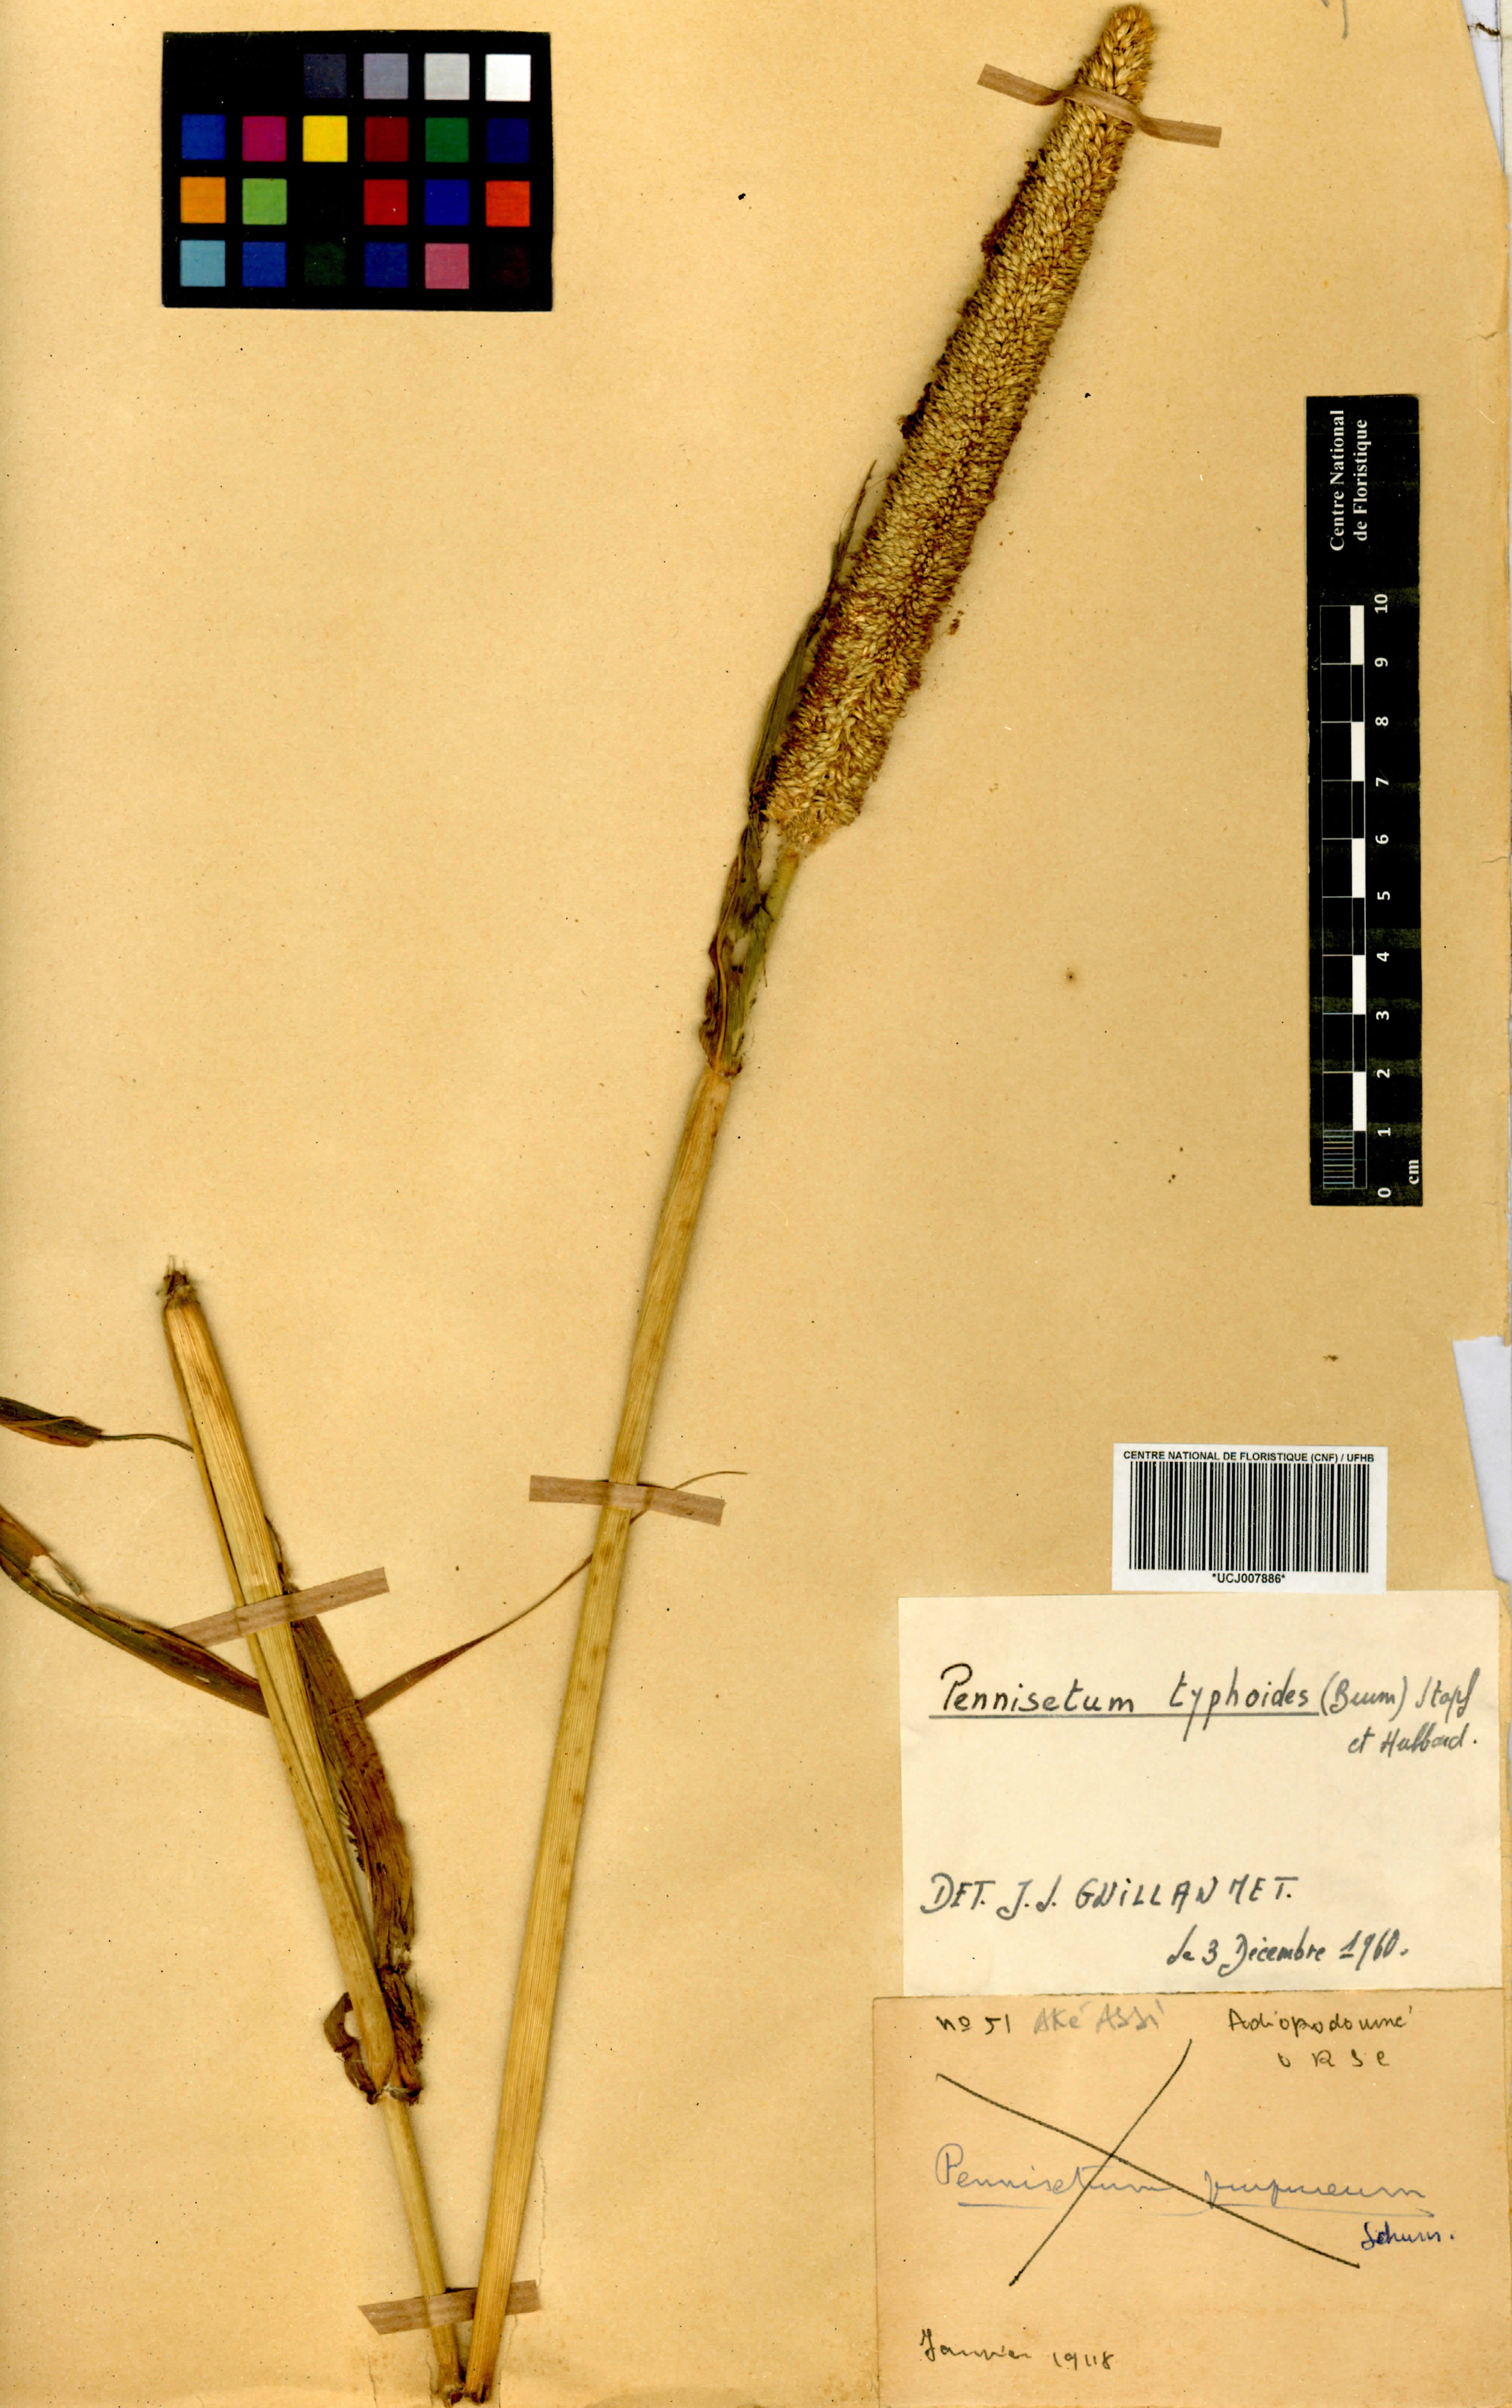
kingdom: Plantae
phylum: Tracheophyta
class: Liliopsida
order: Poales
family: Poaceae
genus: Cenchrus
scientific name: Cenchrus americanus
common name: Pearl millet
